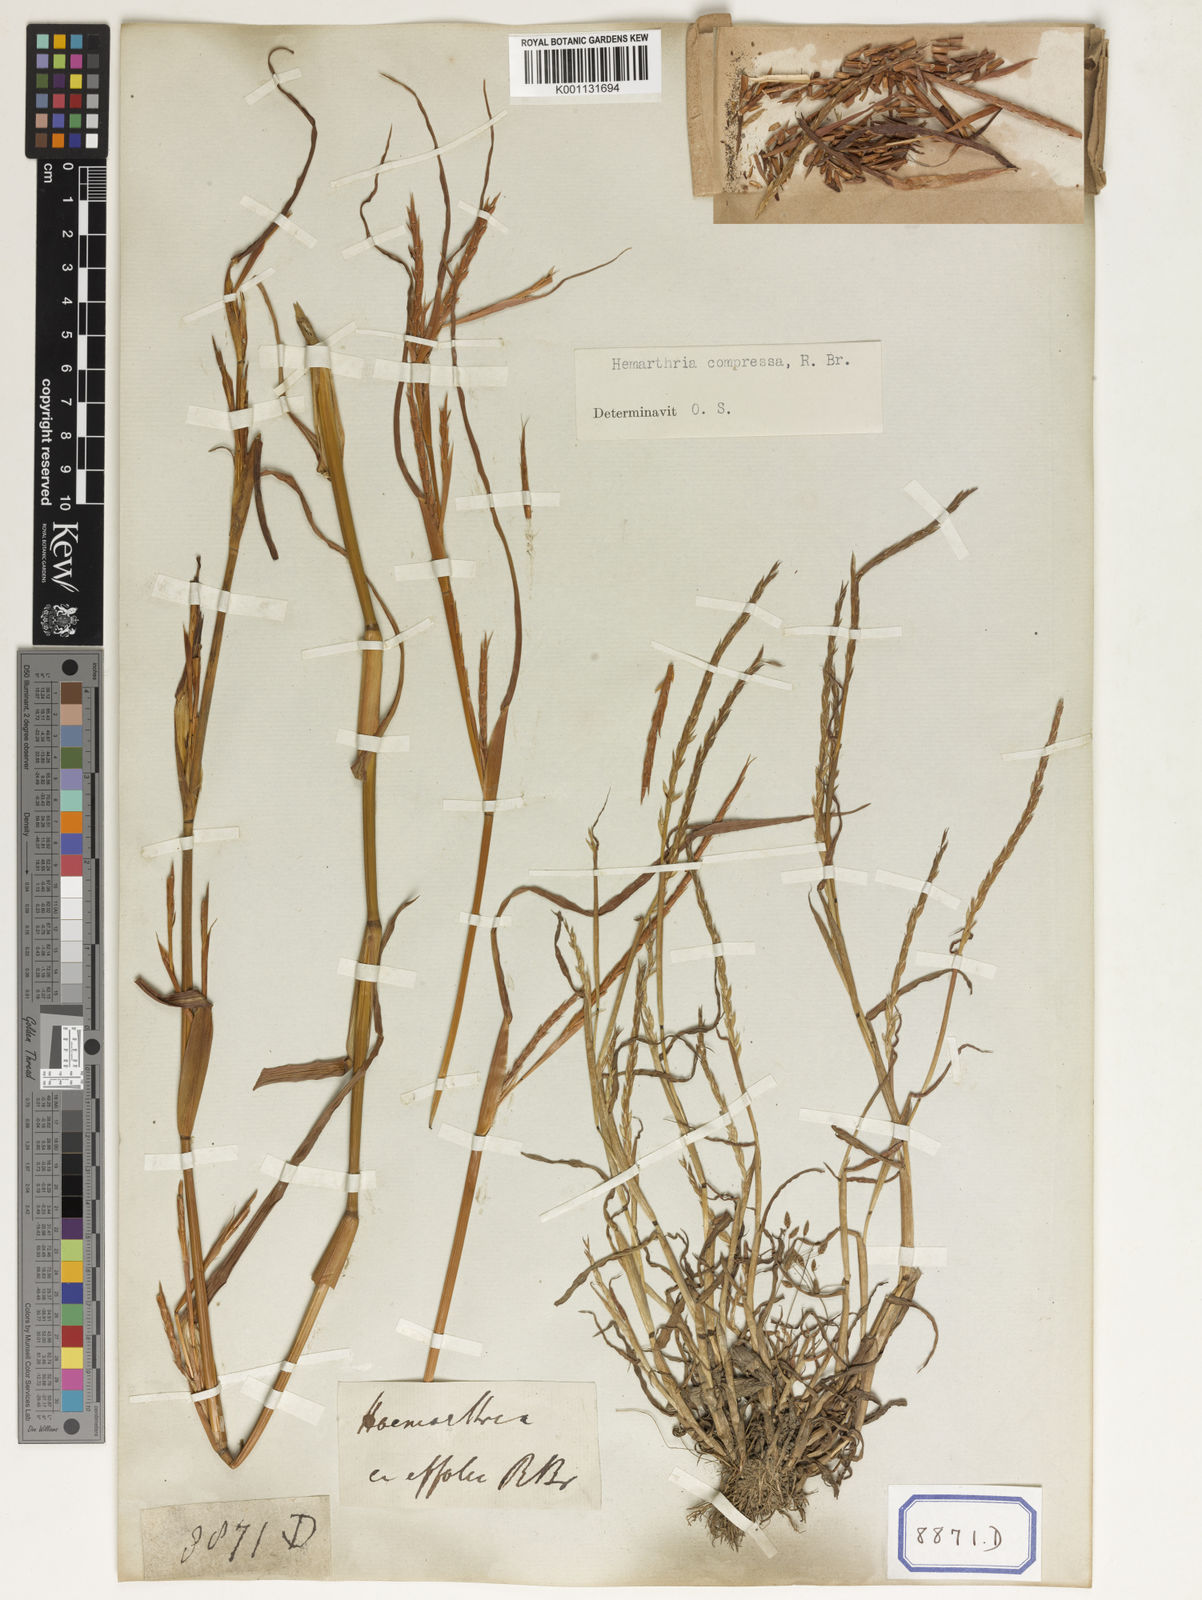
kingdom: Plantae
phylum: Tracheophyta
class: Liliopsida
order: Poales
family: Poaceae
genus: Hemarthria
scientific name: Hemarthria
